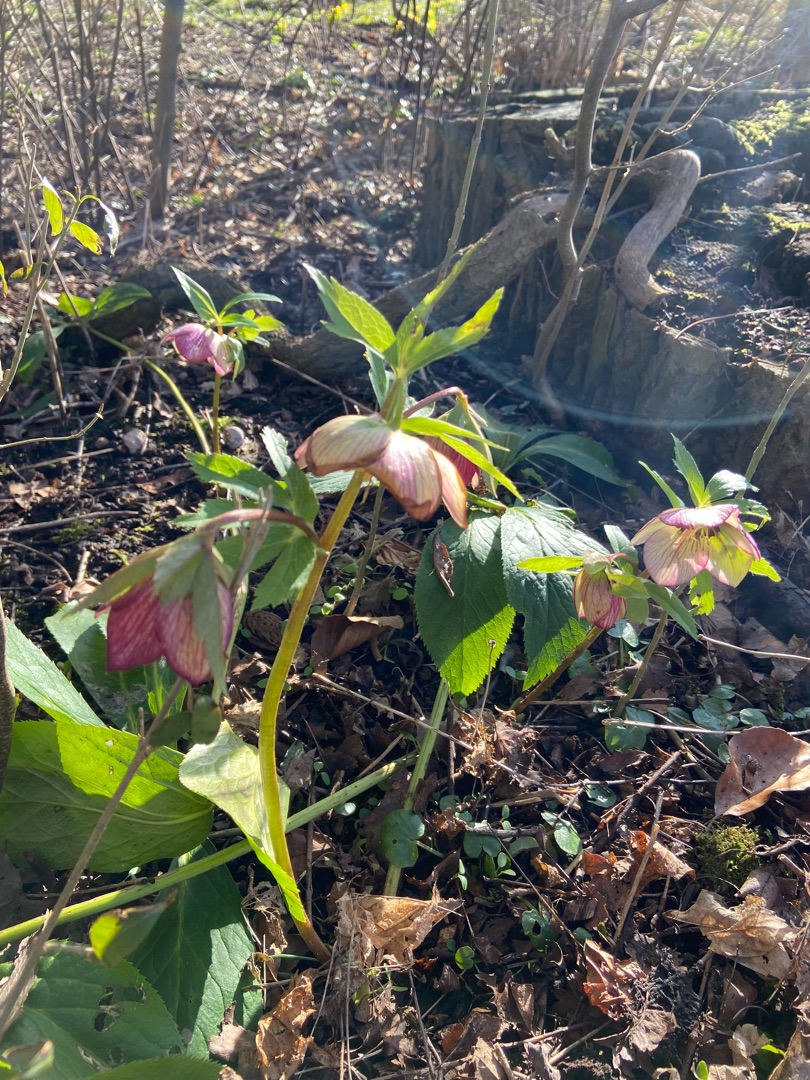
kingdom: Plantae
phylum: Tracheophyta
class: Magnoliopsida
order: Ranunculales
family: Ranunculaceae
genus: Helleborus
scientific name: Helleborus orientalis
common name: Storblomstret julerose
